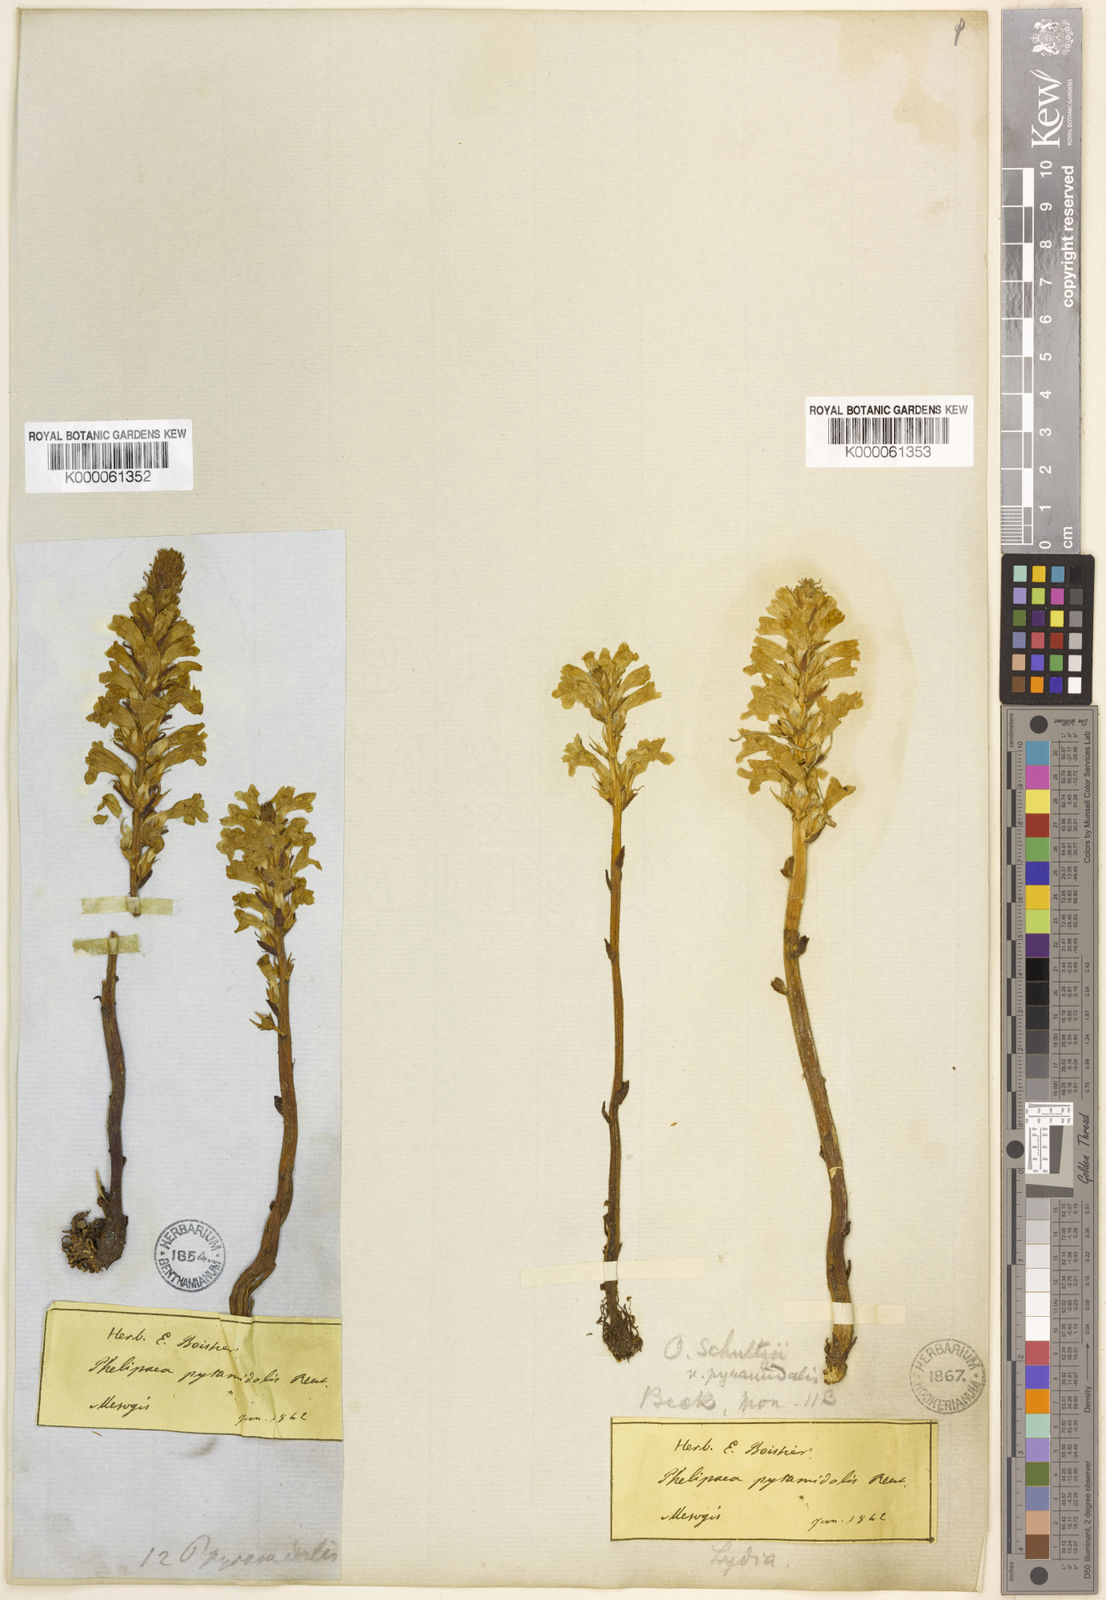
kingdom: Plantae
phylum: Tracheophyta
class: Magnoliopsida
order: Lamiales
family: Orobanchaceae
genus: Phelipanche
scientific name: Phelipanche schultzii
